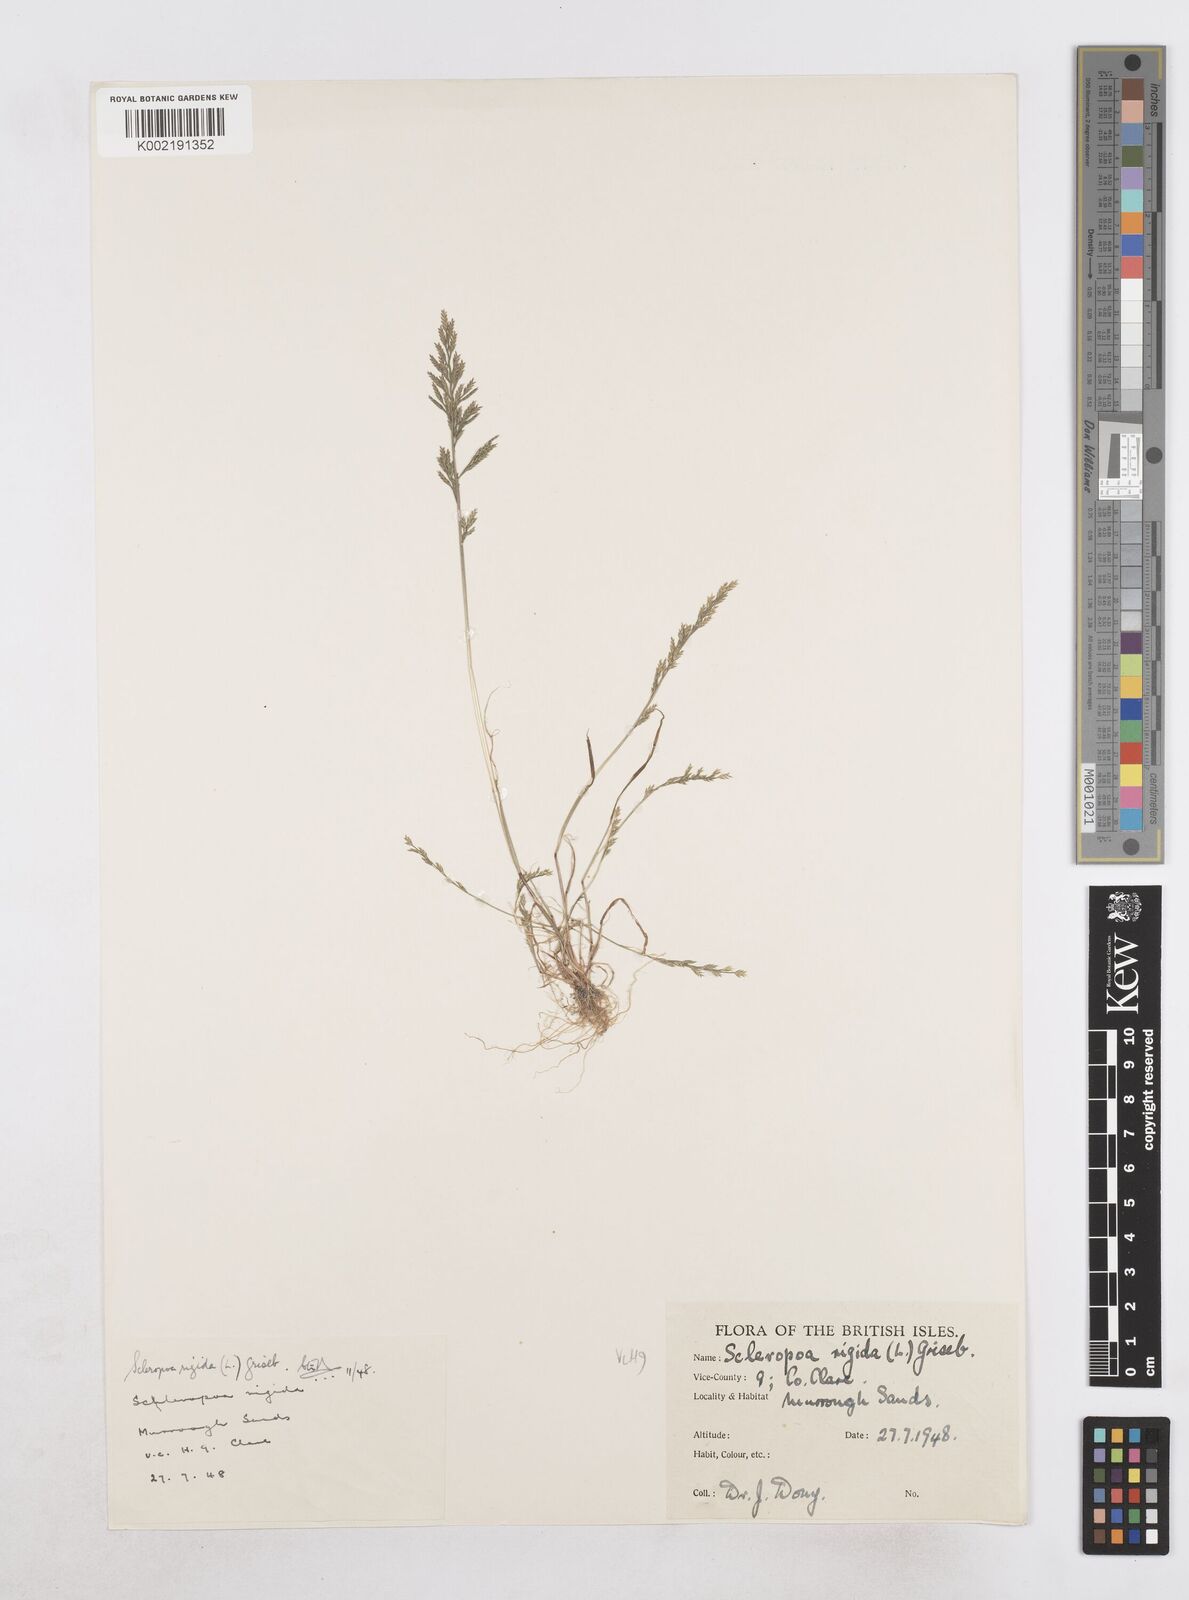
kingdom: Plantae
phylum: Tracheophyta
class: Liliopsida
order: Poales
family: Poaceae
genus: Catapodium
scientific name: Catapodium rigidum
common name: Fern-grass
